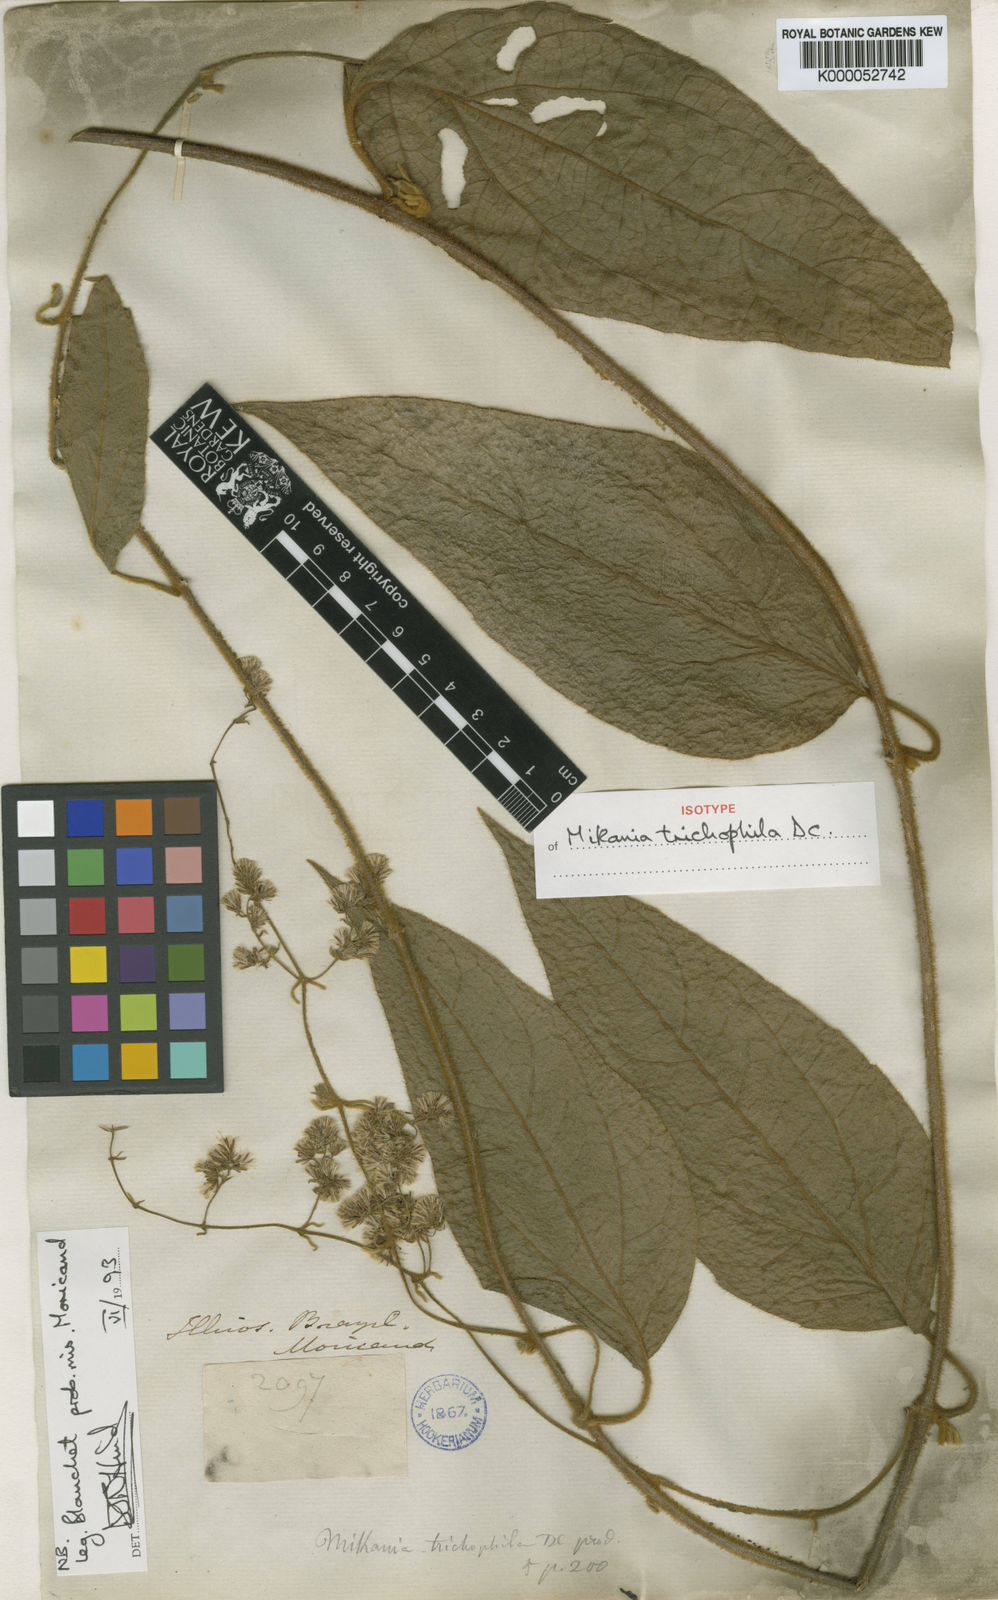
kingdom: Plantae
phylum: Tracheophyta
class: Magnoliopsida
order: Asterales
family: Asteraceae
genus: Mikania
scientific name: Mikania trichophila
